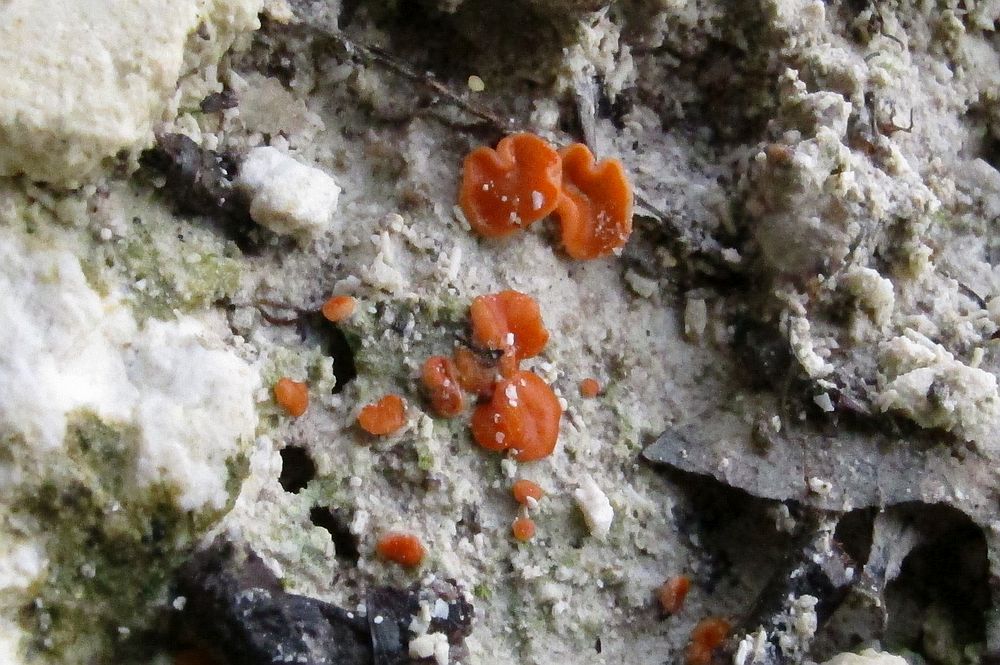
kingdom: Fungi
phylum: Ascomycota
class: Pezizomycetes
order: Pezizales
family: Pyronemataceae
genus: Pulvinula
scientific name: Pulvinula
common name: pudebæger
